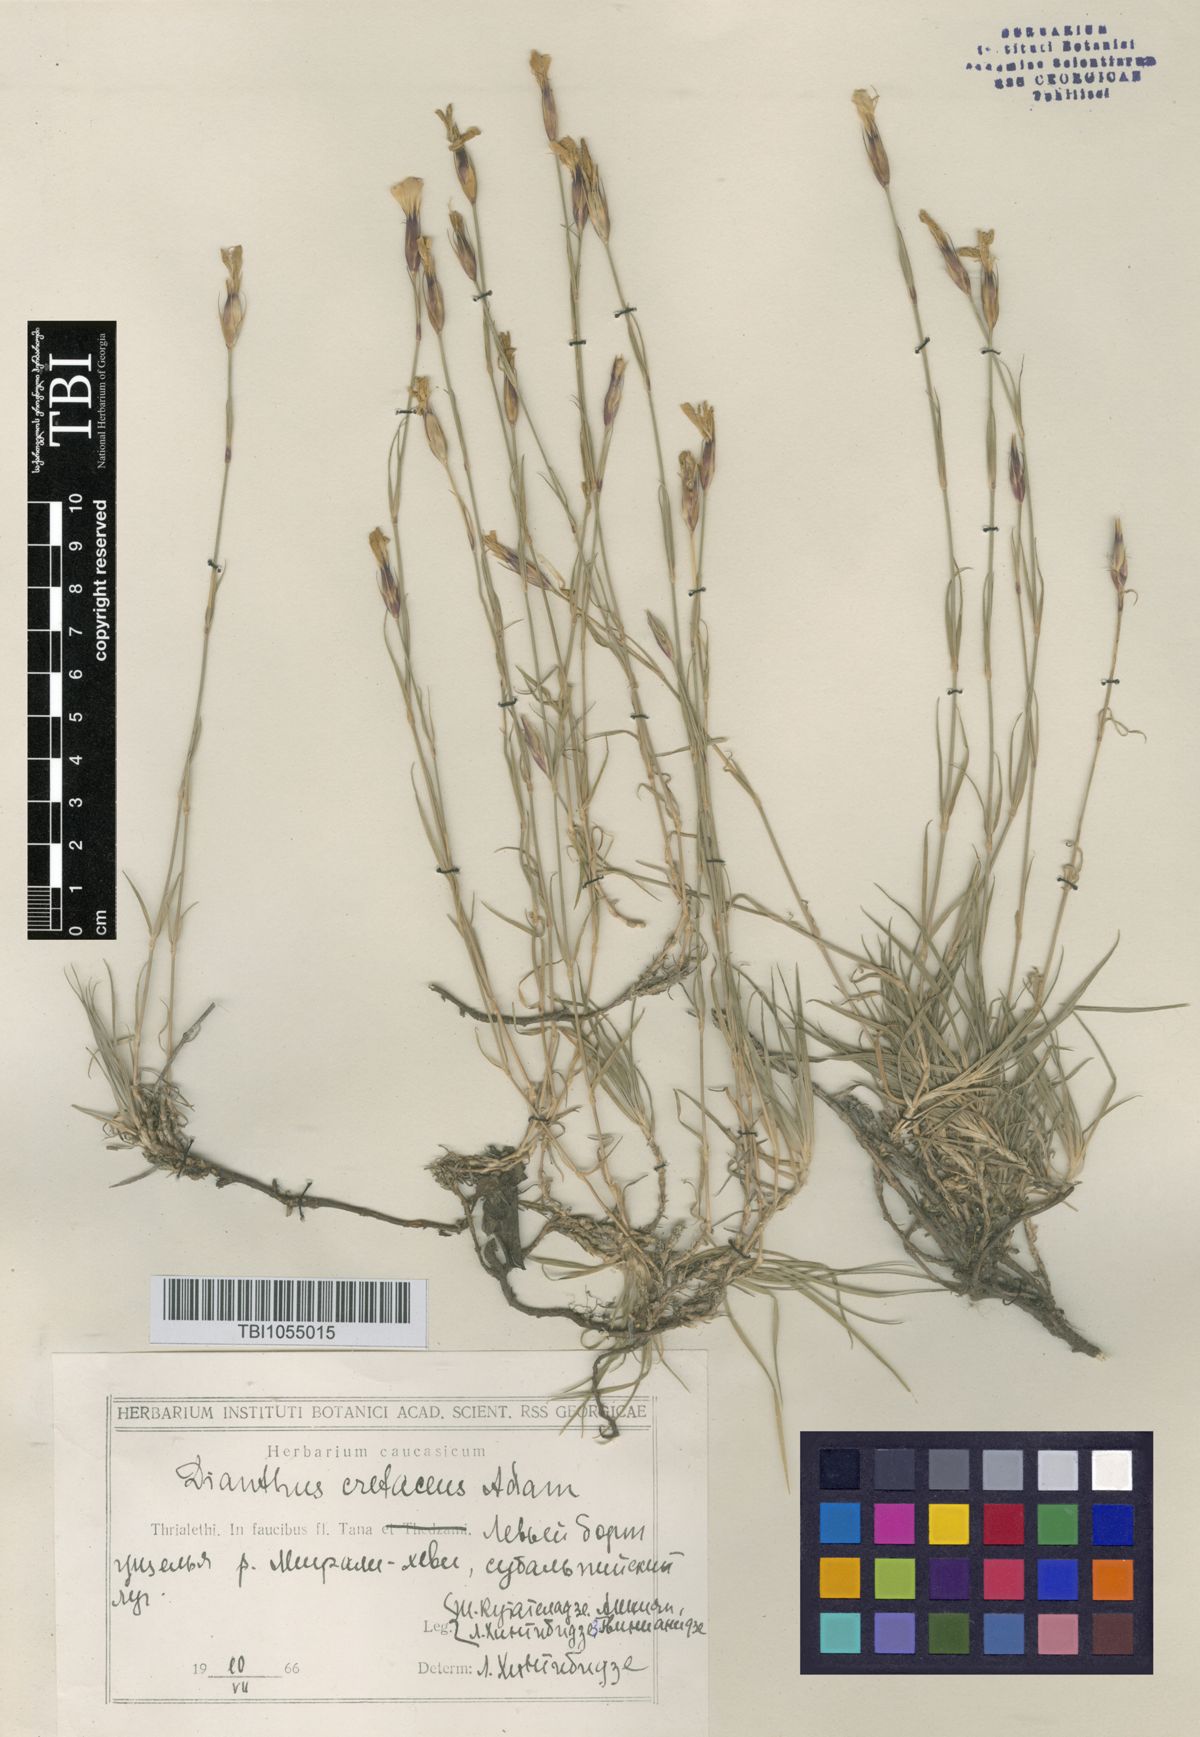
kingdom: Plantae
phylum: Tracheophyta
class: Magnoliopsida
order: Caryophyllales
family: Caryophyllaceae
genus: Dianthus
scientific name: Dianthus cretaceus
